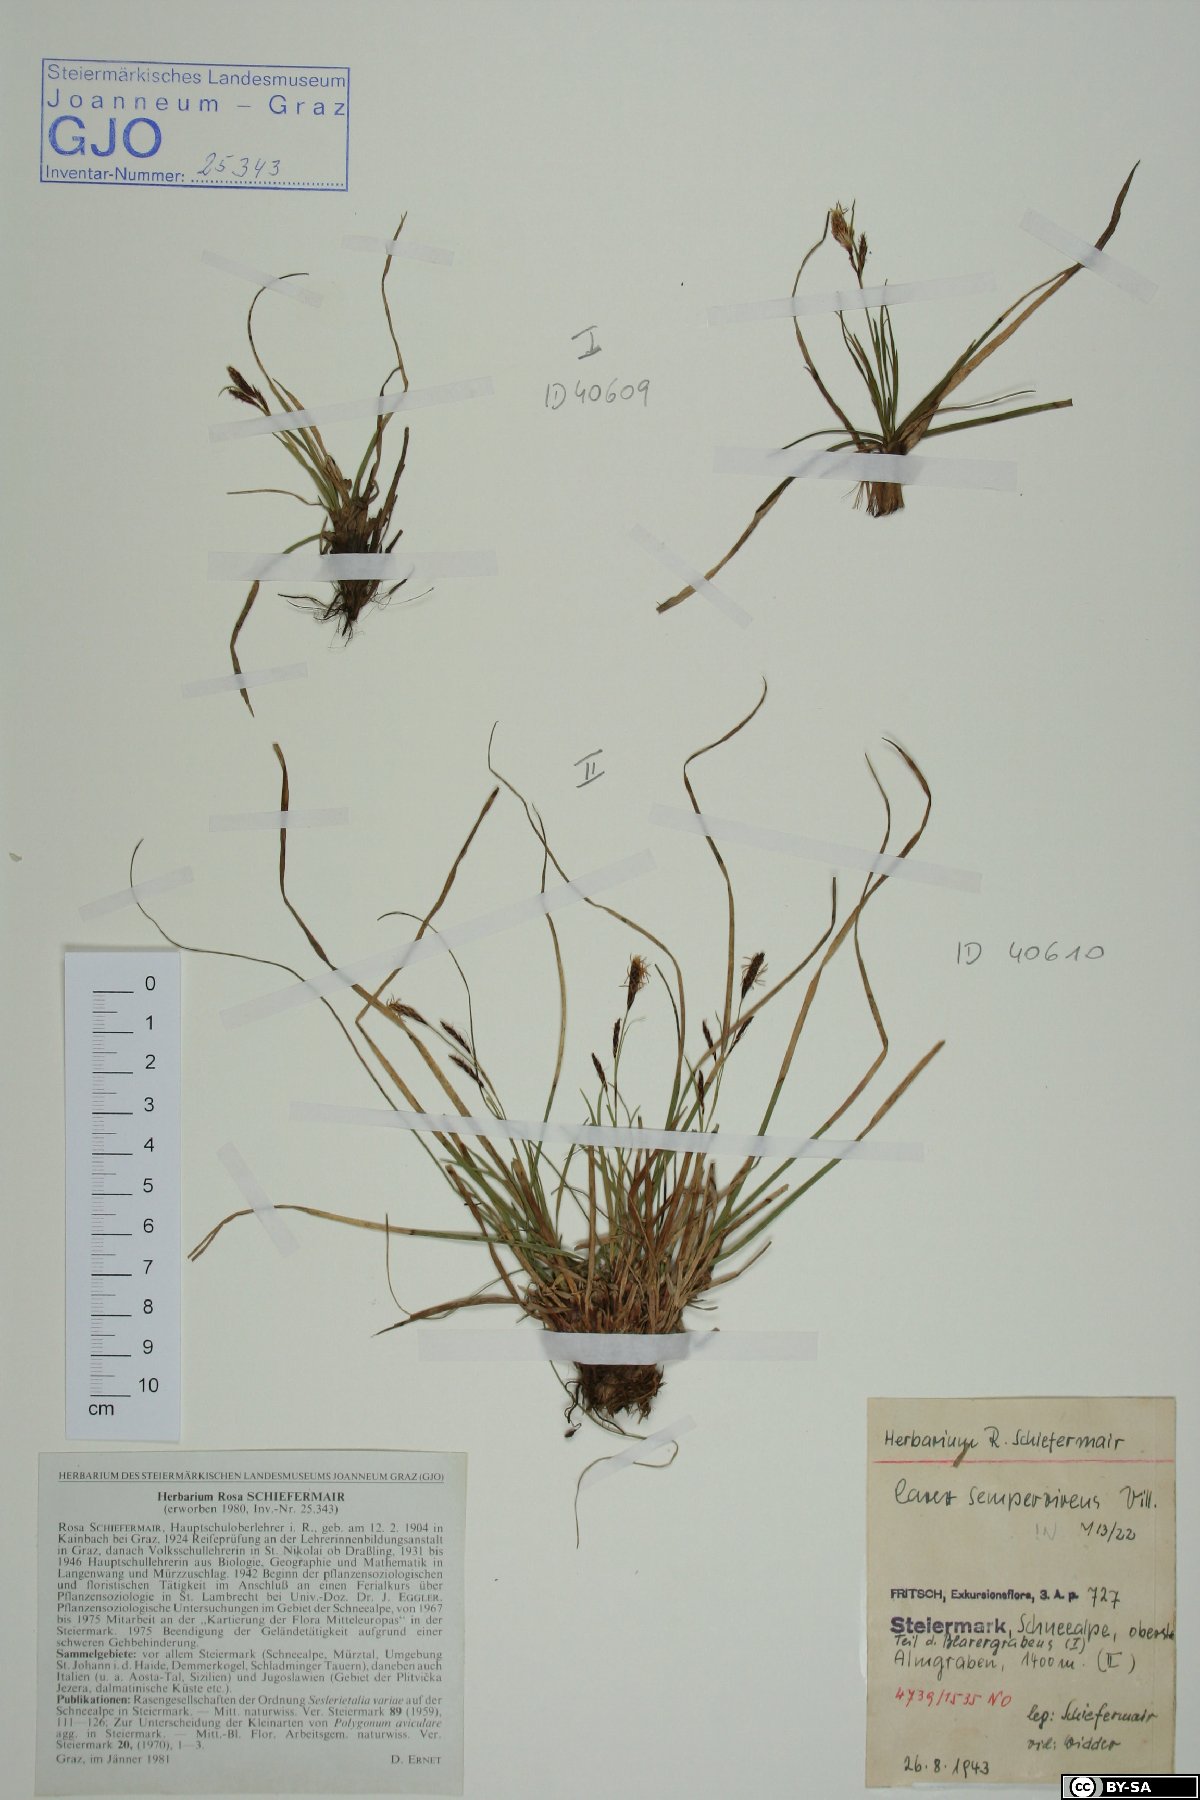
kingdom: Plantae
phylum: Tracheophyta
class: Liliopsida
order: Poales
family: Cyperaceae
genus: Carex
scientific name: Carex sempervirens
